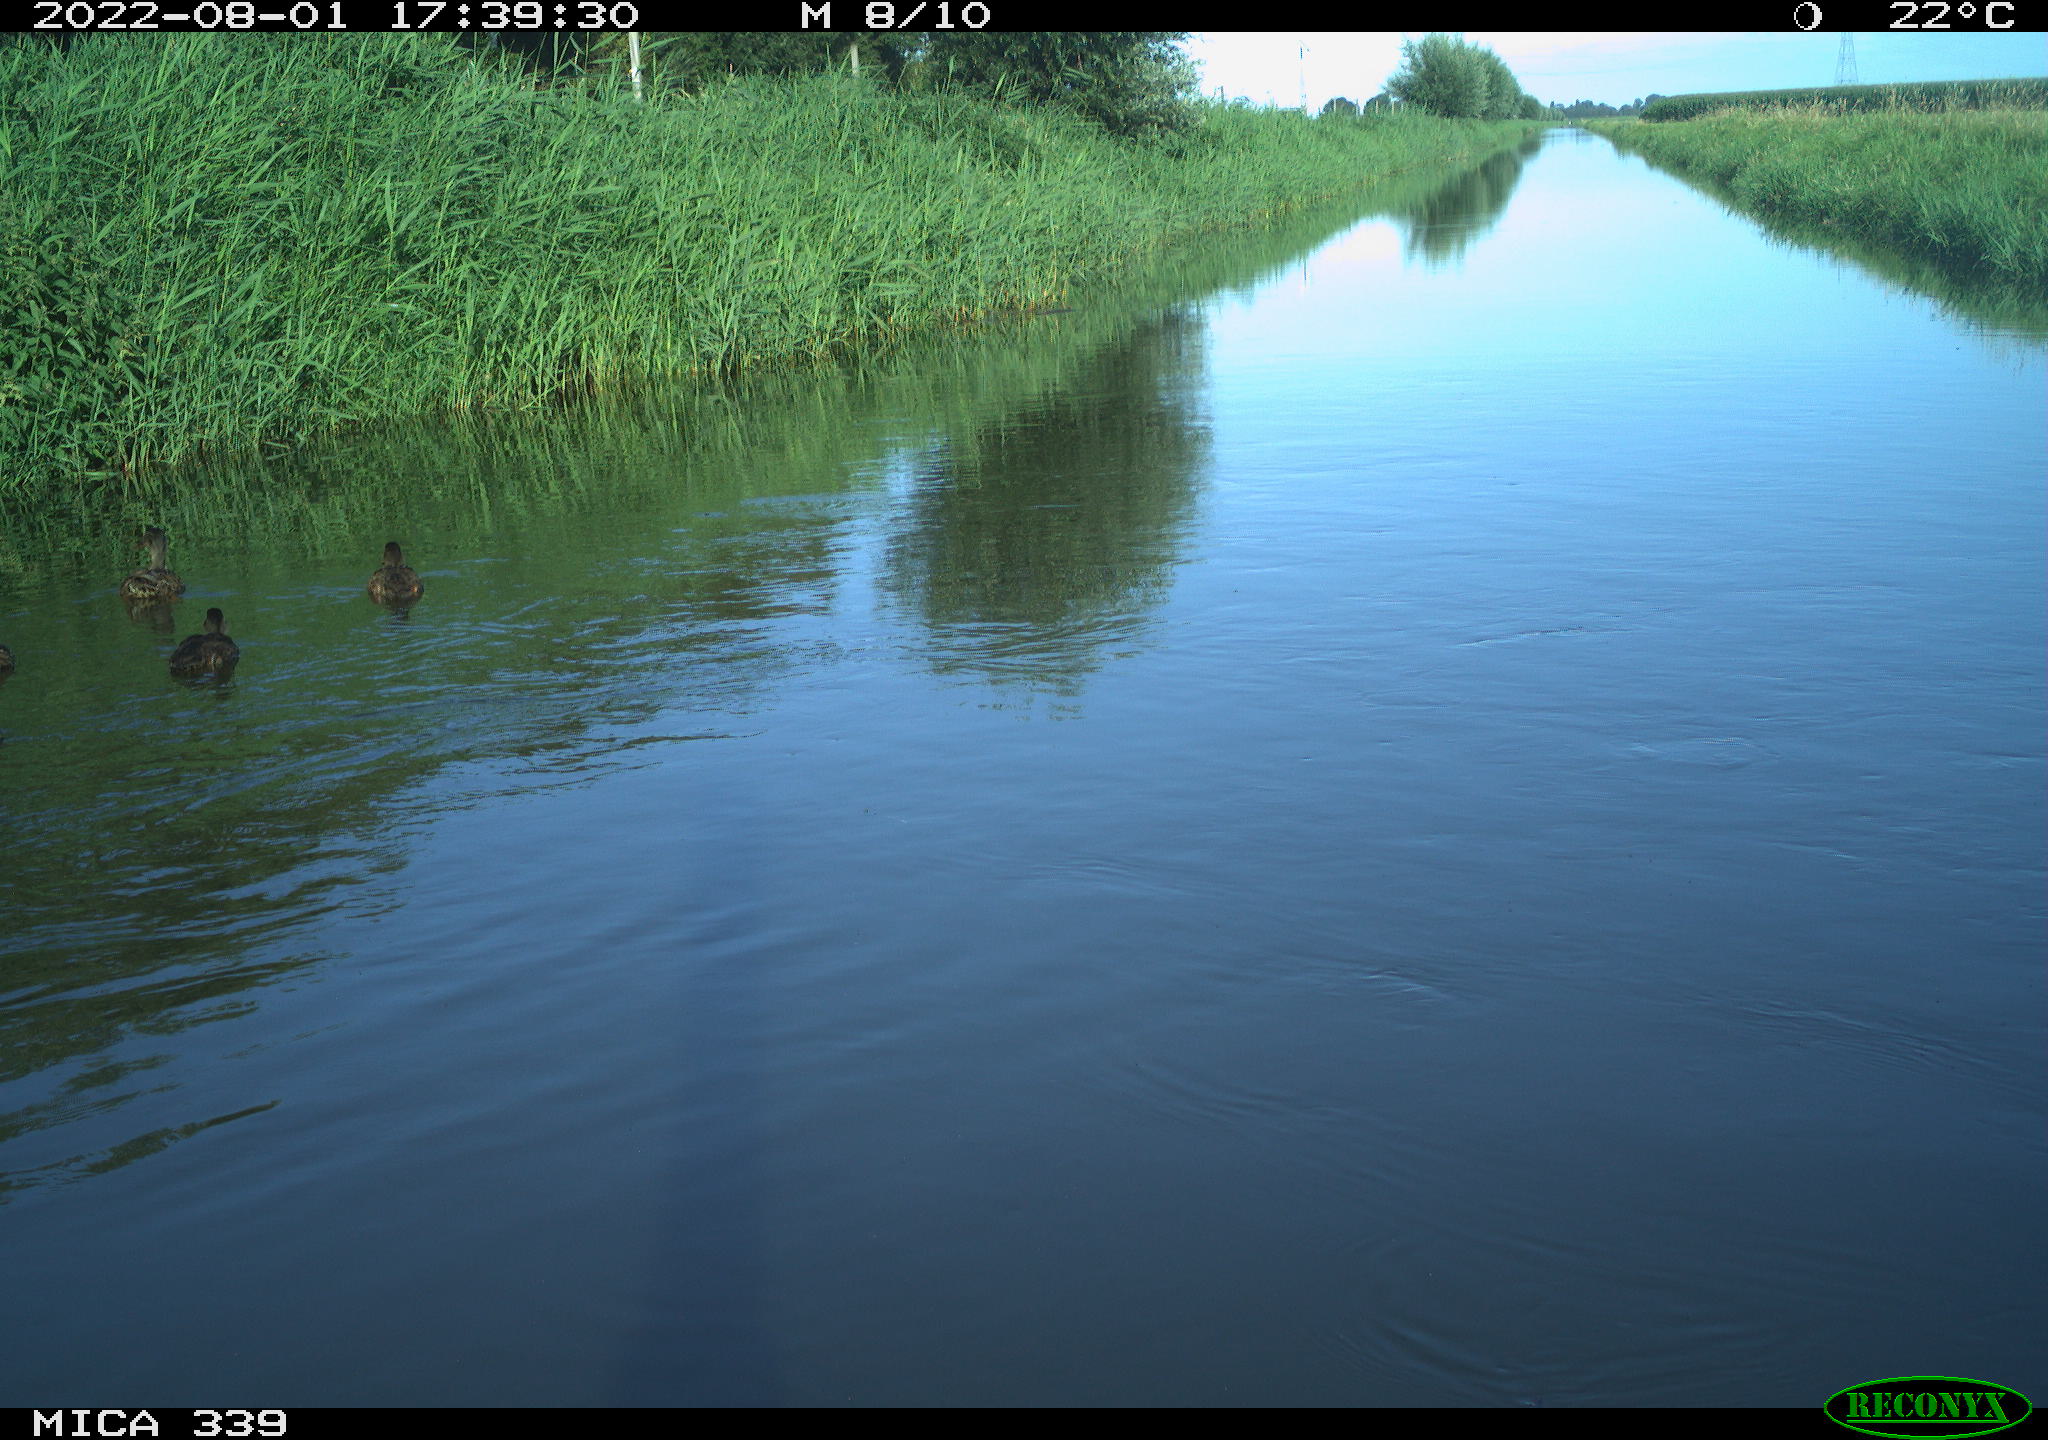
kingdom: Animalia
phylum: Chordata
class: Aves
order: Anseriformes
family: Anatidae
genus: Anas
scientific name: Anas platyrhynchos
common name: Mallard
